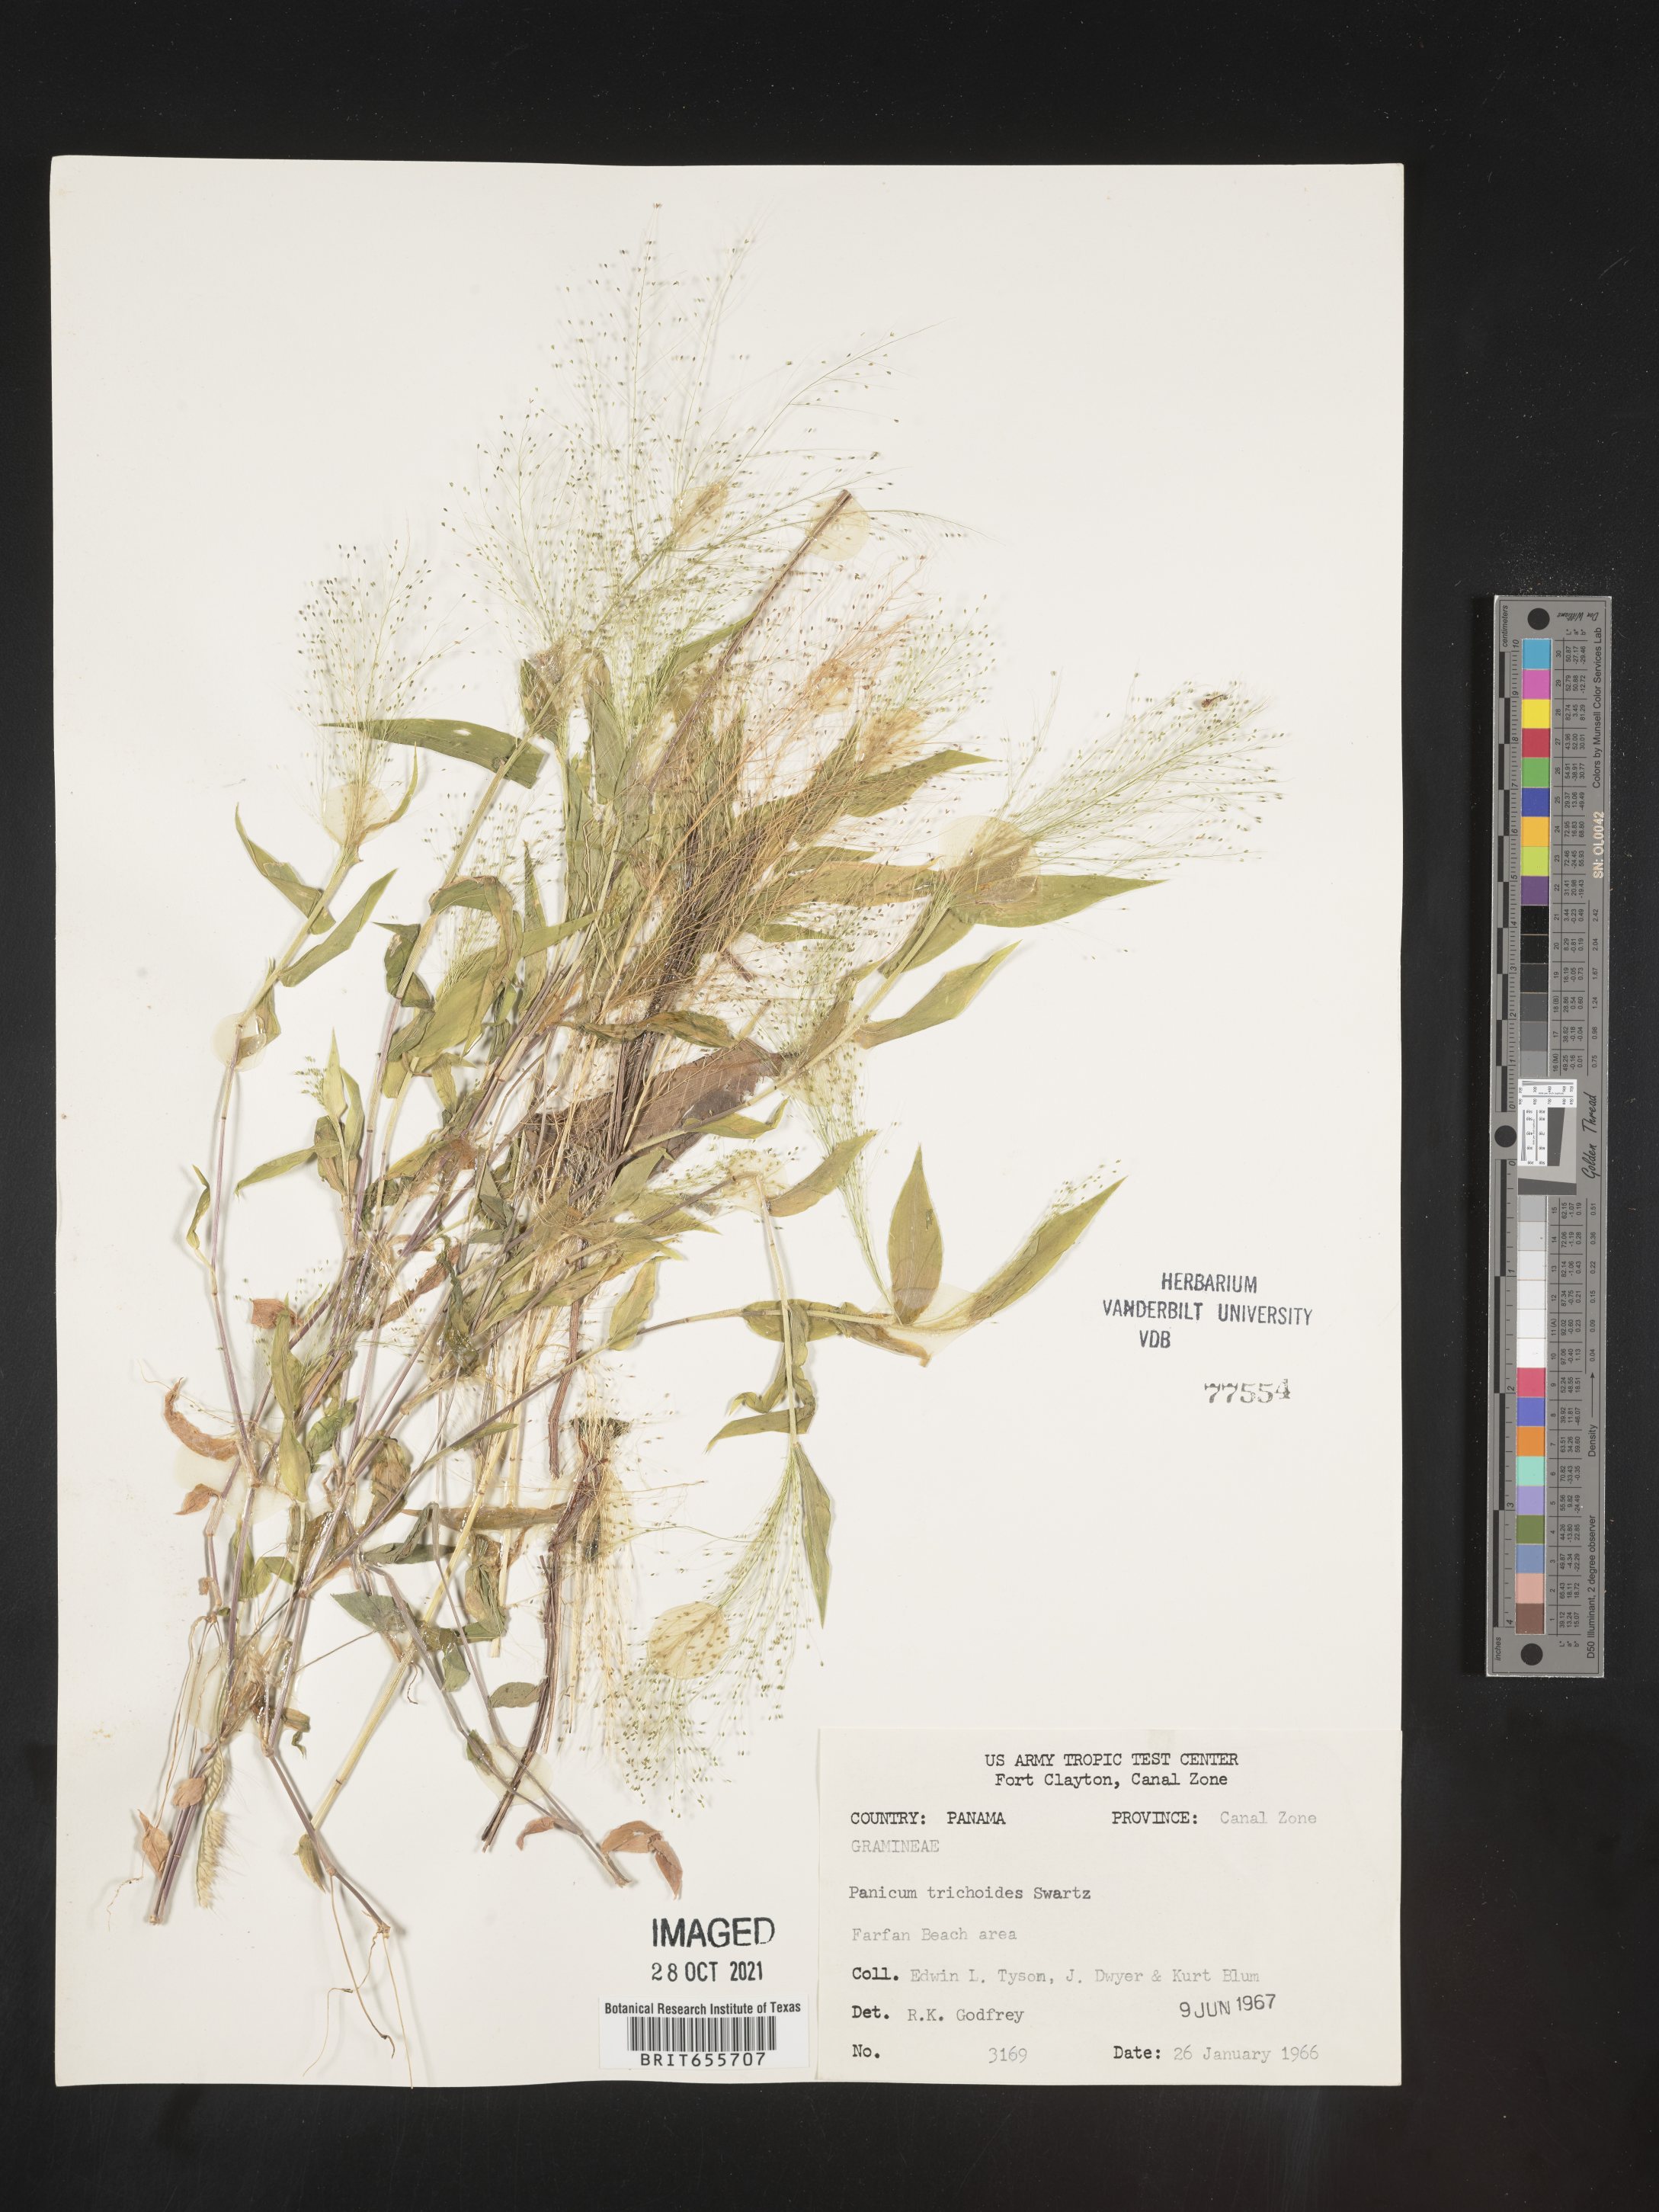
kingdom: Plantae
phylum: Tracheophyta
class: Liliopsida
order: Poales
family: Poaceae
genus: Panicum
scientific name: Panicum
